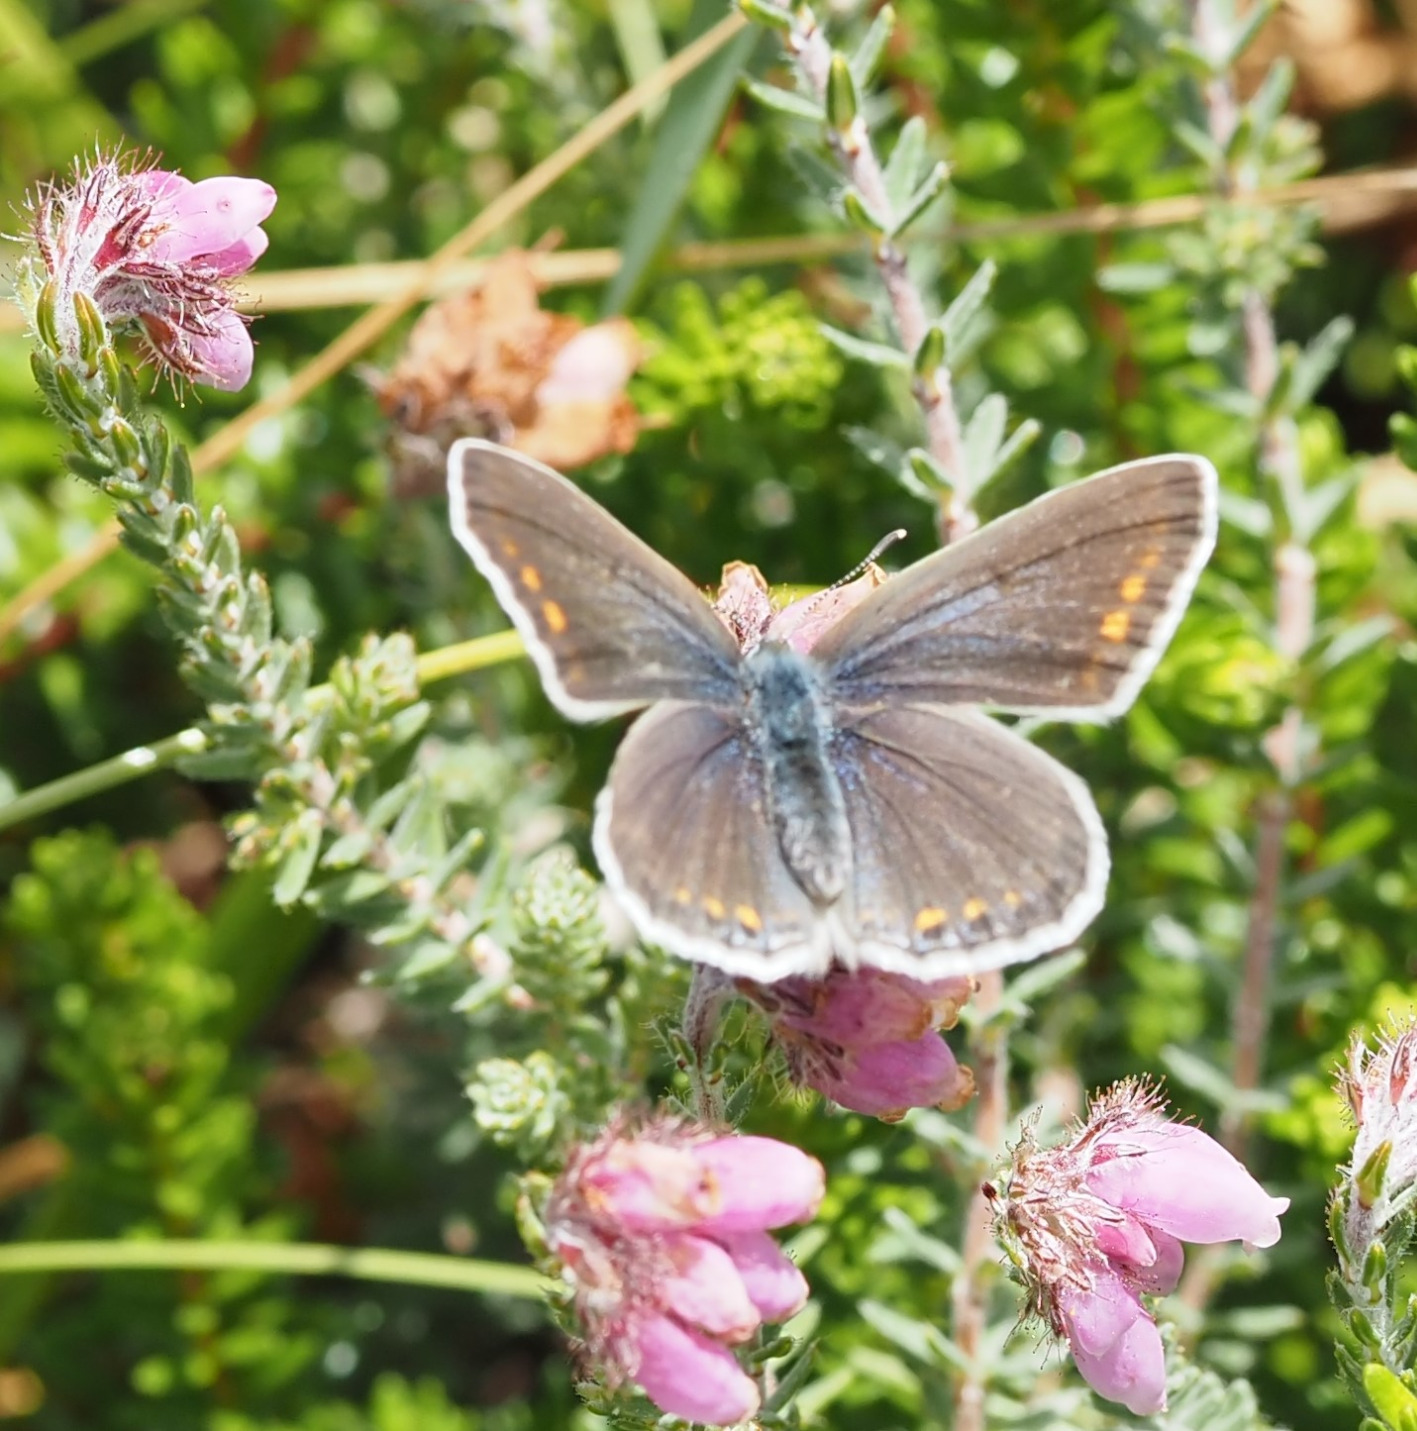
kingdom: Animalia
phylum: Arthropoda
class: Insecta
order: Lepidoptera
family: Lycaenidae
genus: Polyommatus
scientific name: Polyommatus icarus
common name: Almindelig blåfugl
